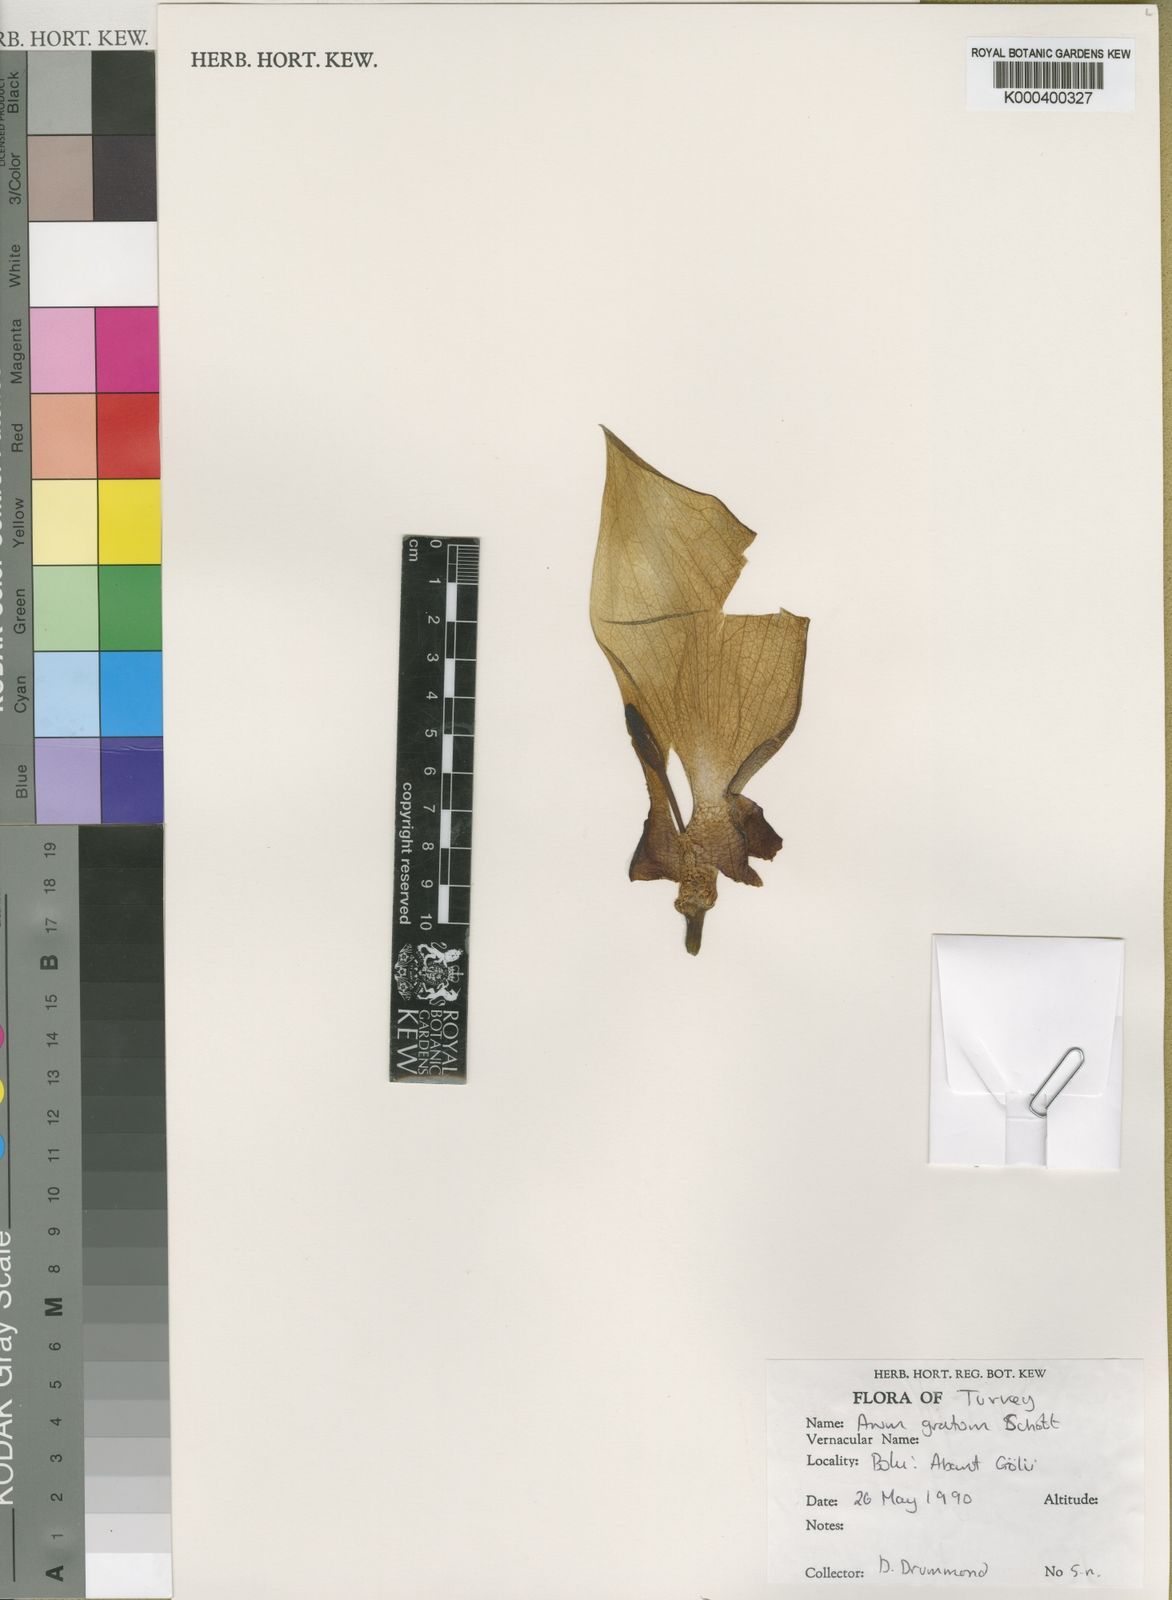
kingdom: Plantae
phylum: Tracheophyta
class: Liliopsida
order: Alismatales
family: Araceae
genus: Arum
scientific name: Arum gratum
